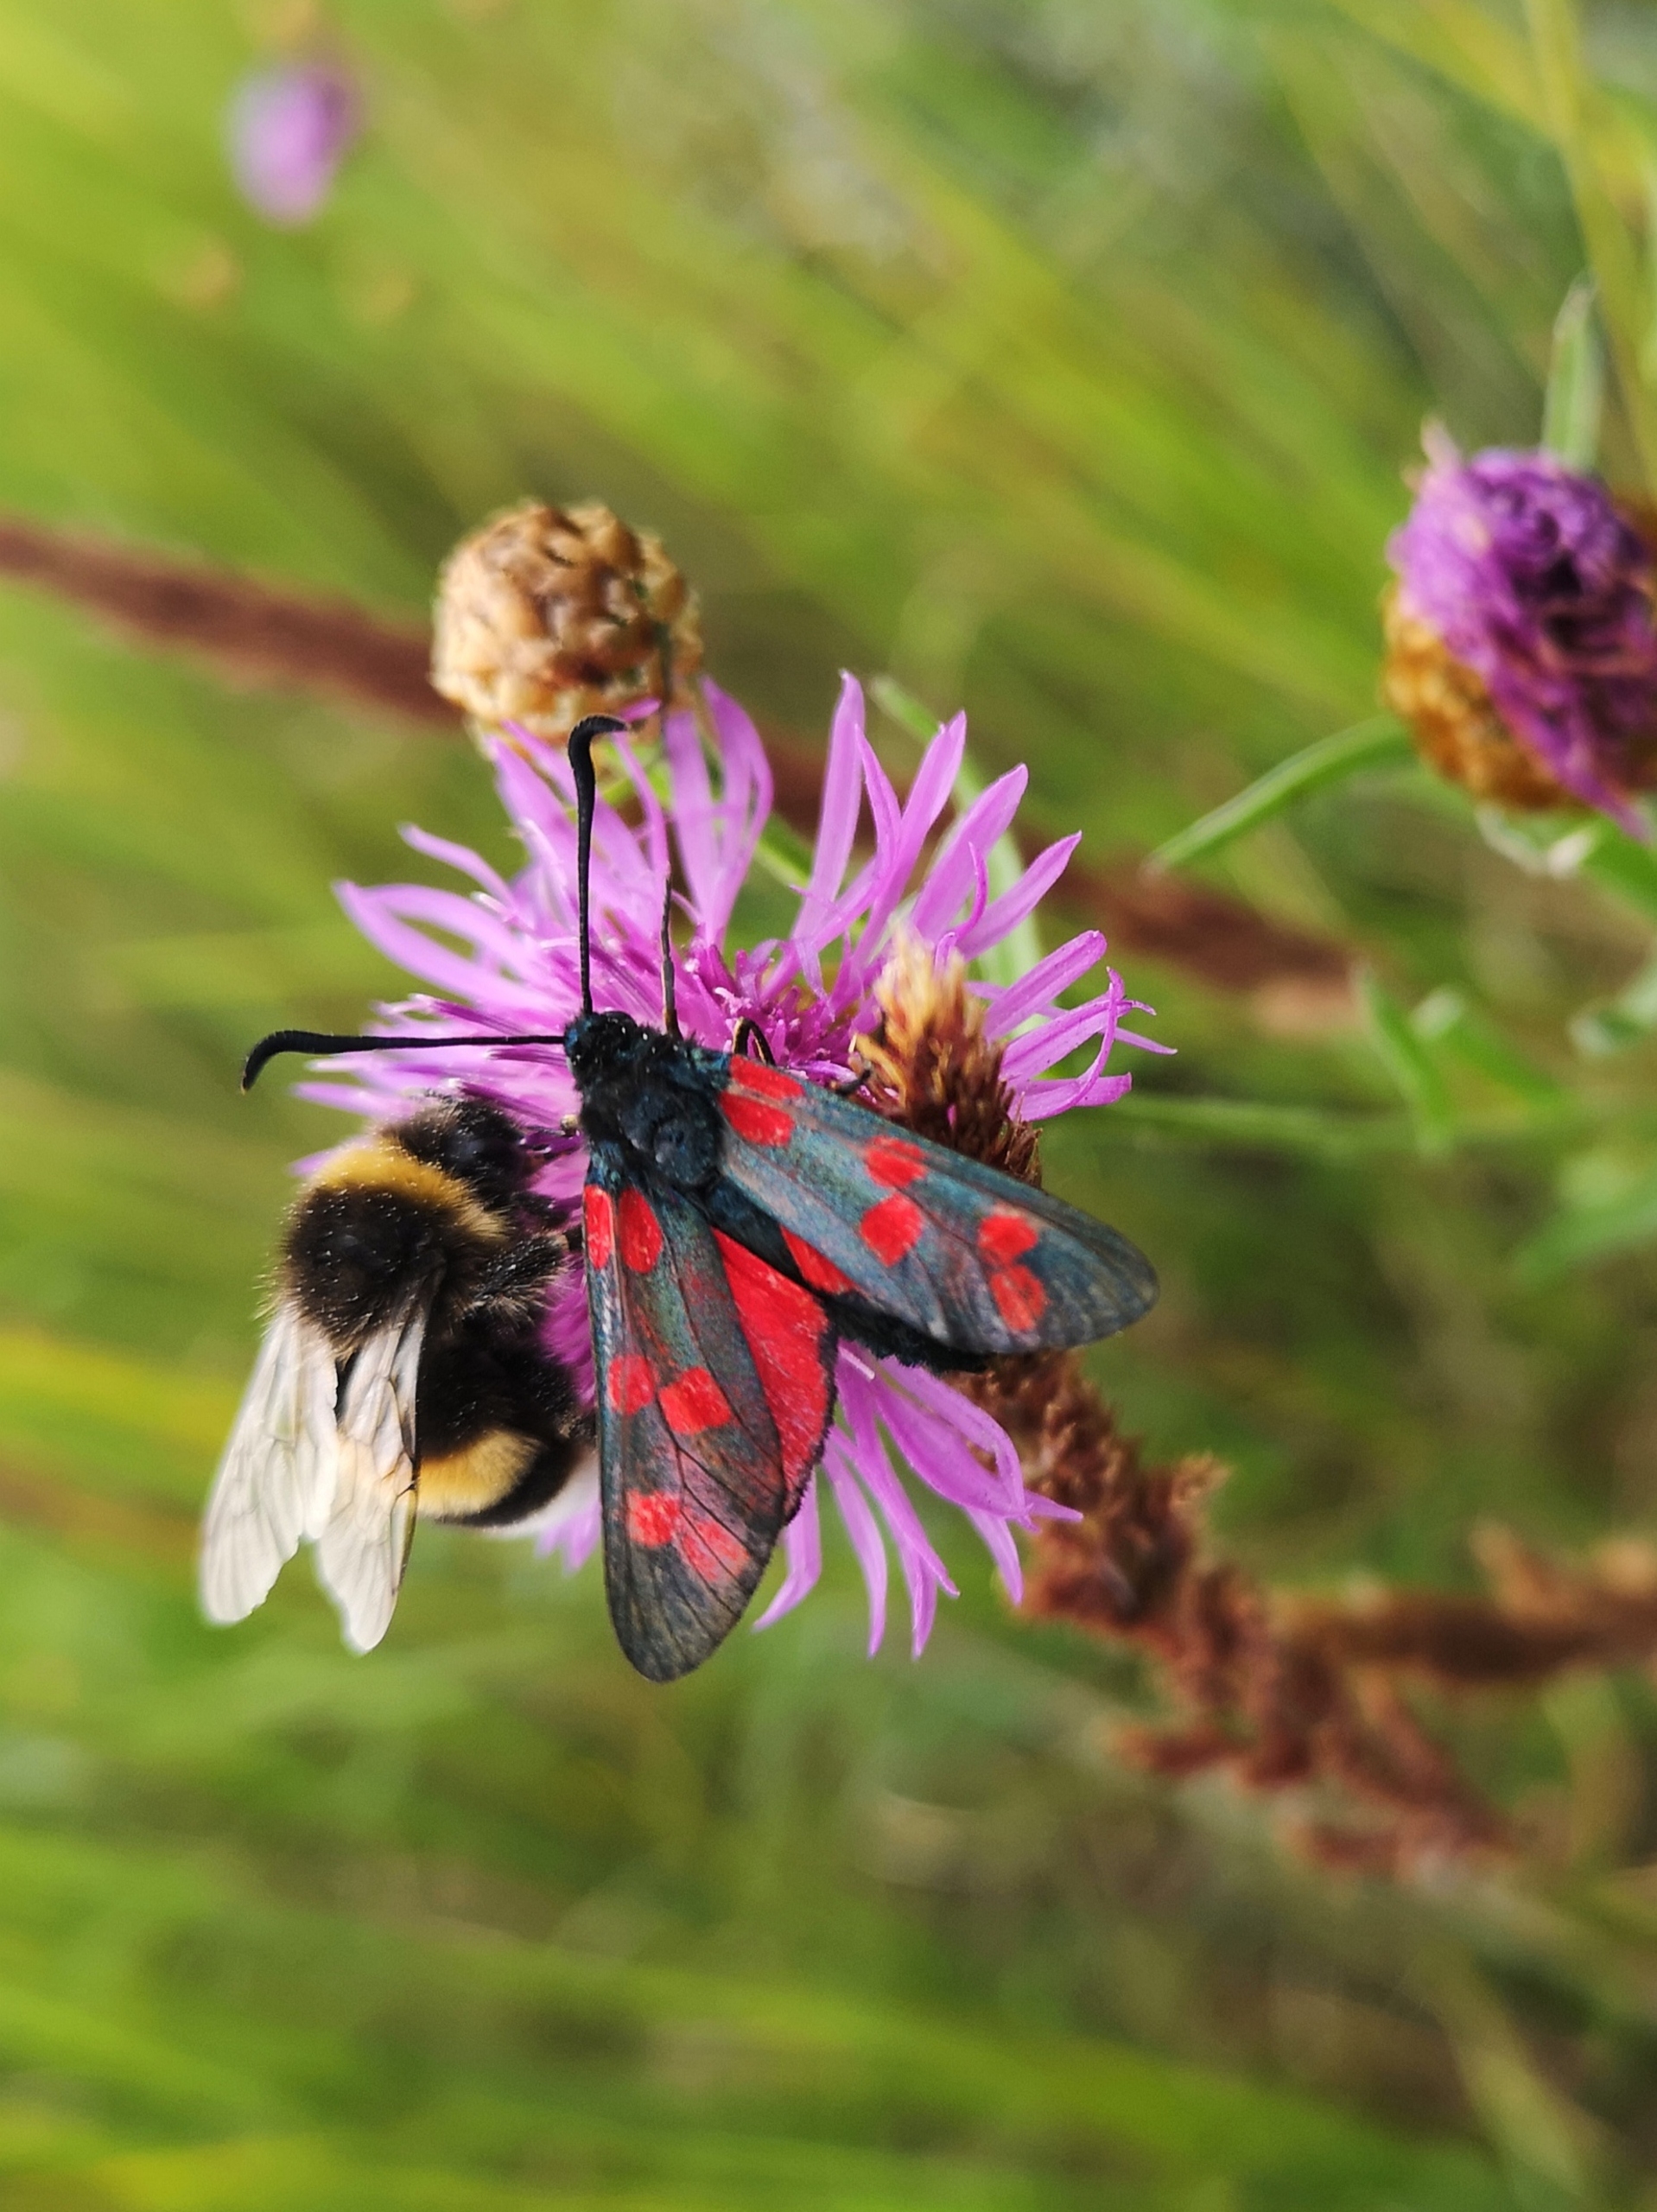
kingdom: Animalia
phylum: Arthropoda
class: Insecta
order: Lepidoptera
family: Zygaenidae
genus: Zygaena
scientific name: Zygaena filipendulae
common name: Seksplettet køllesværmer
